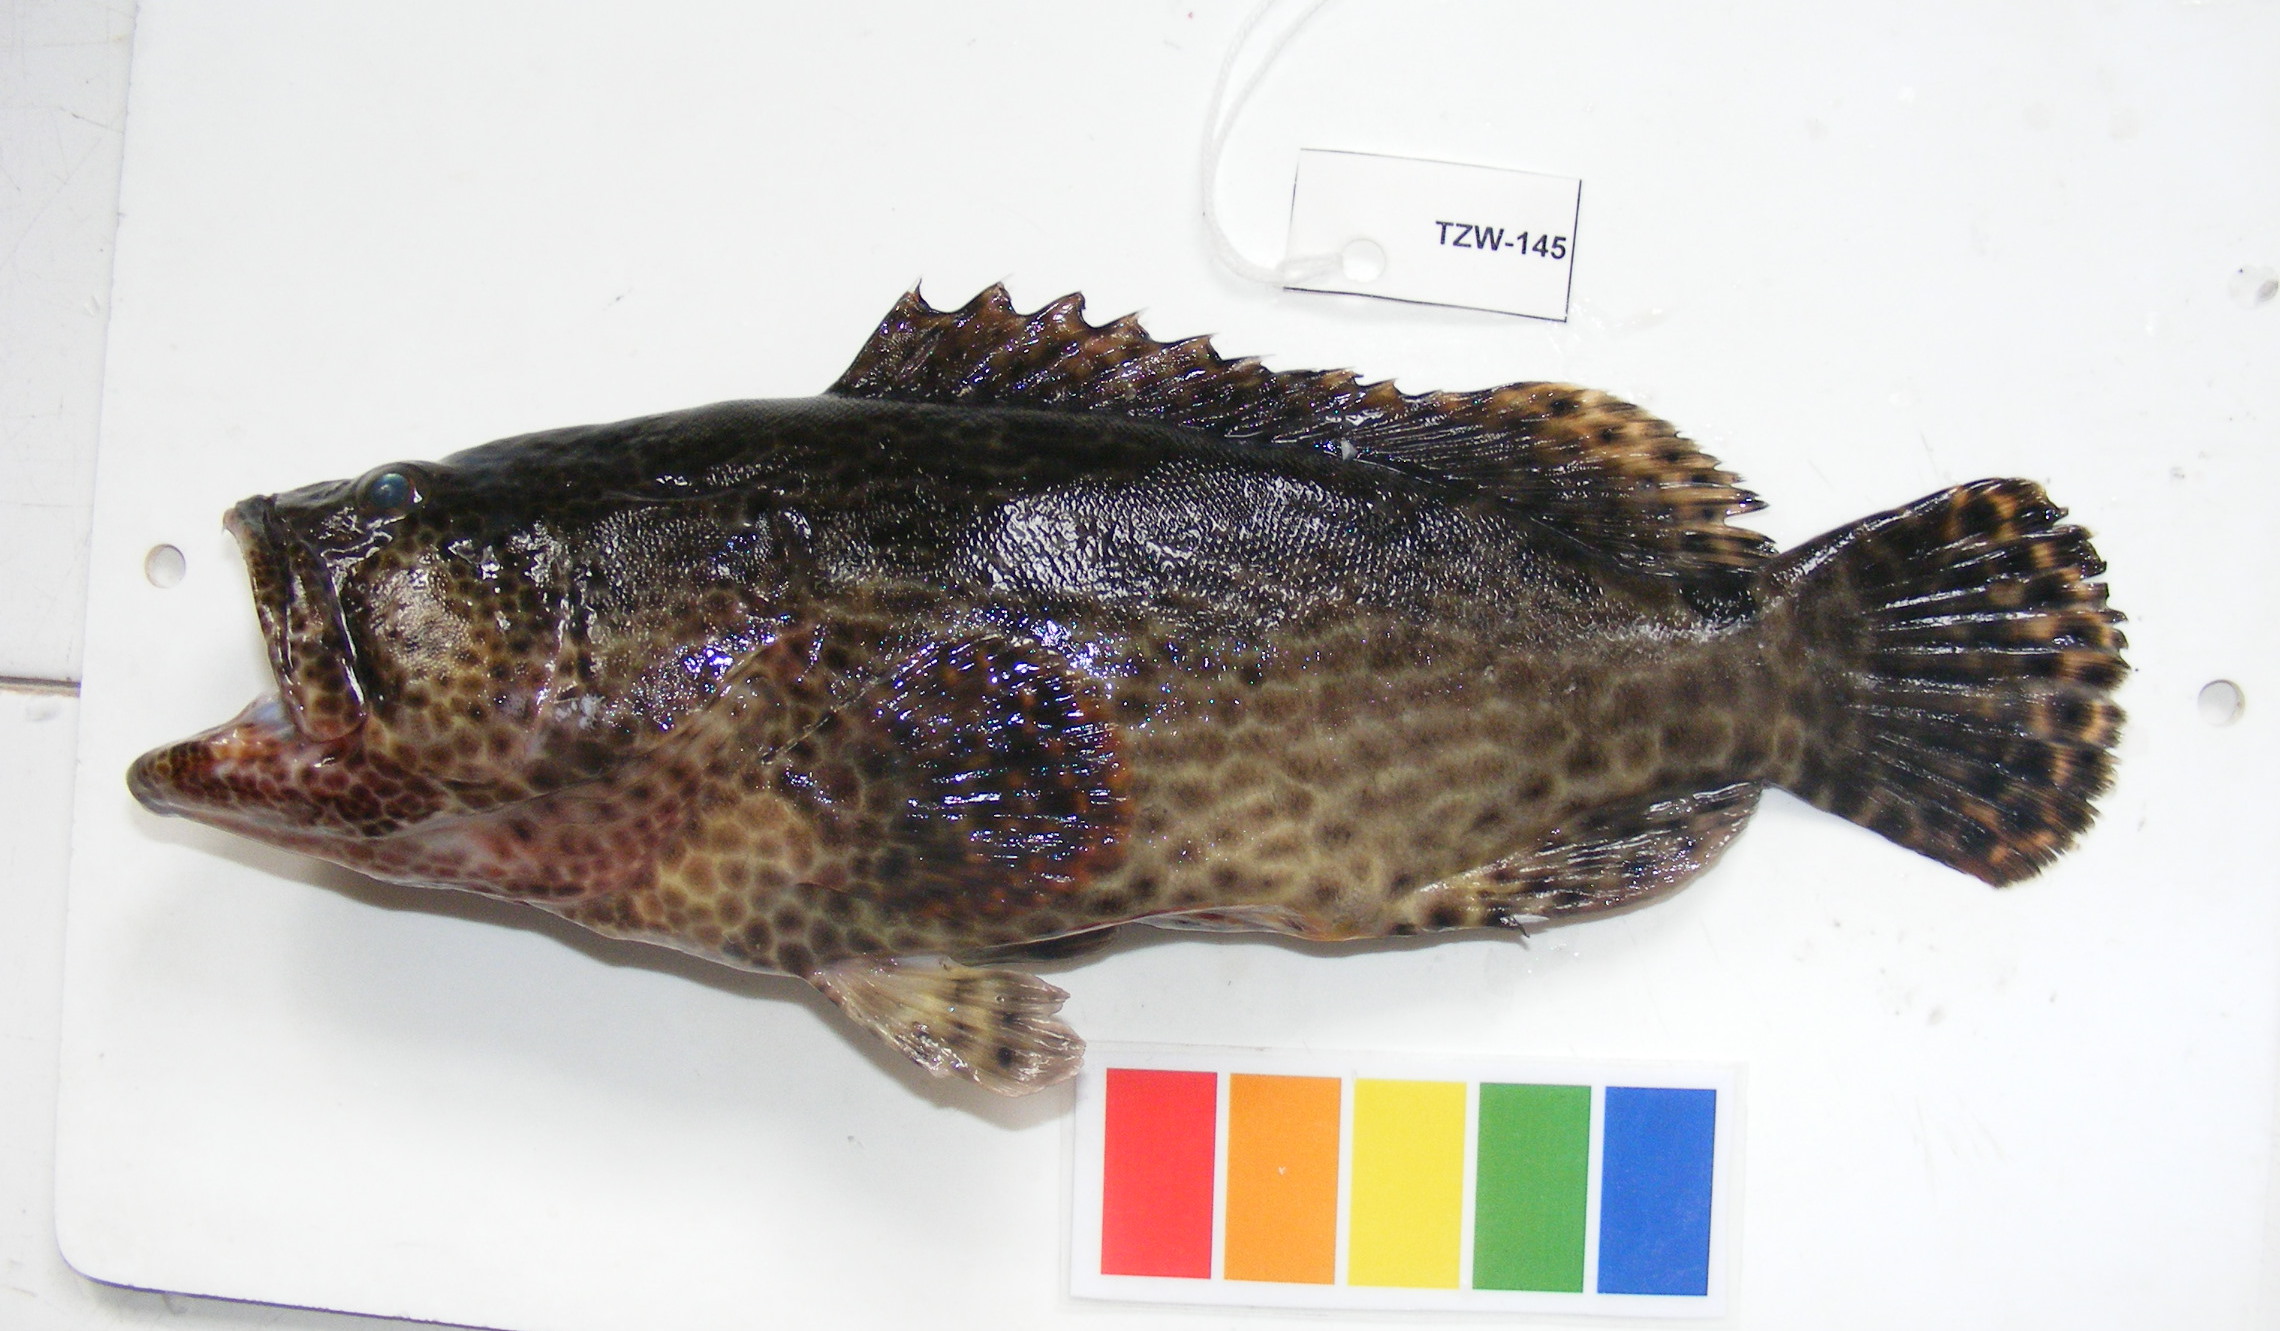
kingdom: Animalia
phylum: Chordata
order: Perciformes
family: Serranidae
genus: Epinephelus
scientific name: Epinephelus spilotoceps
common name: Foursaddle grouper
